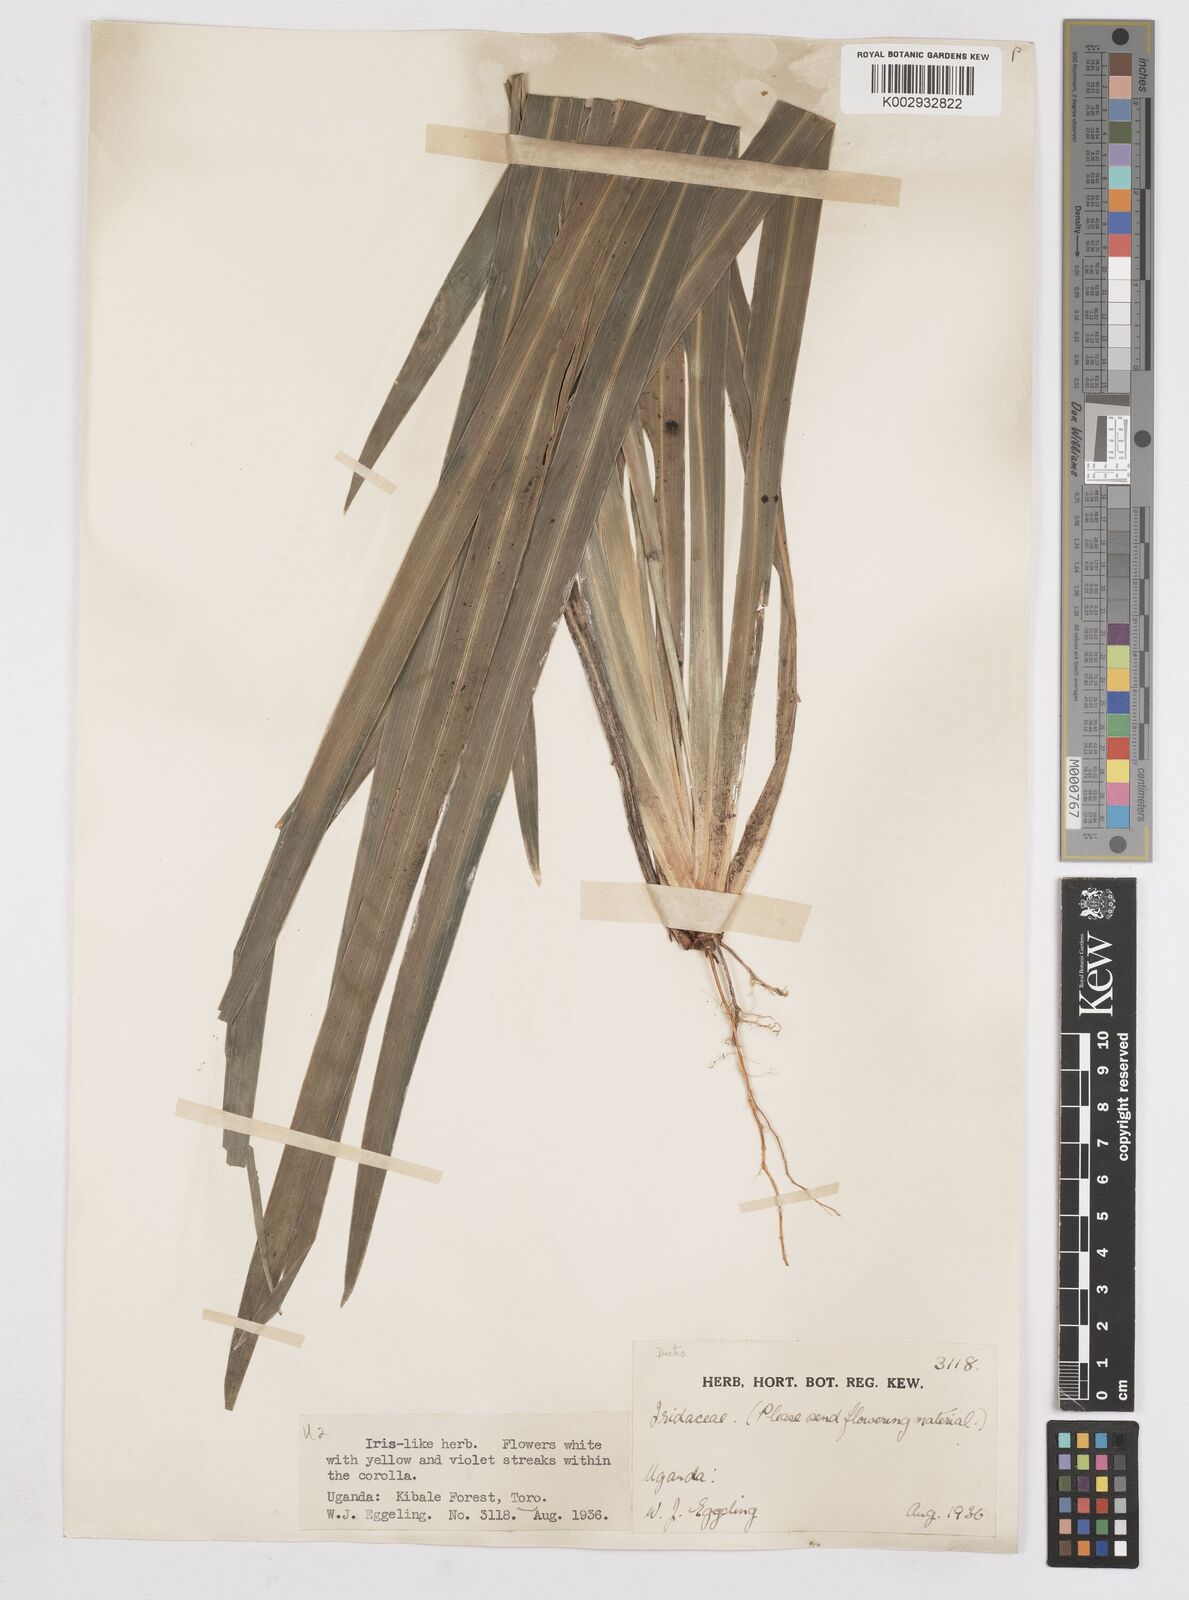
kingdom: Plantae
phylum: Tracheophyta
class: Liliopsida
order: Asparagales
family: Iridaceae
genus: Dietes
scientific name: Dietes iridioides
